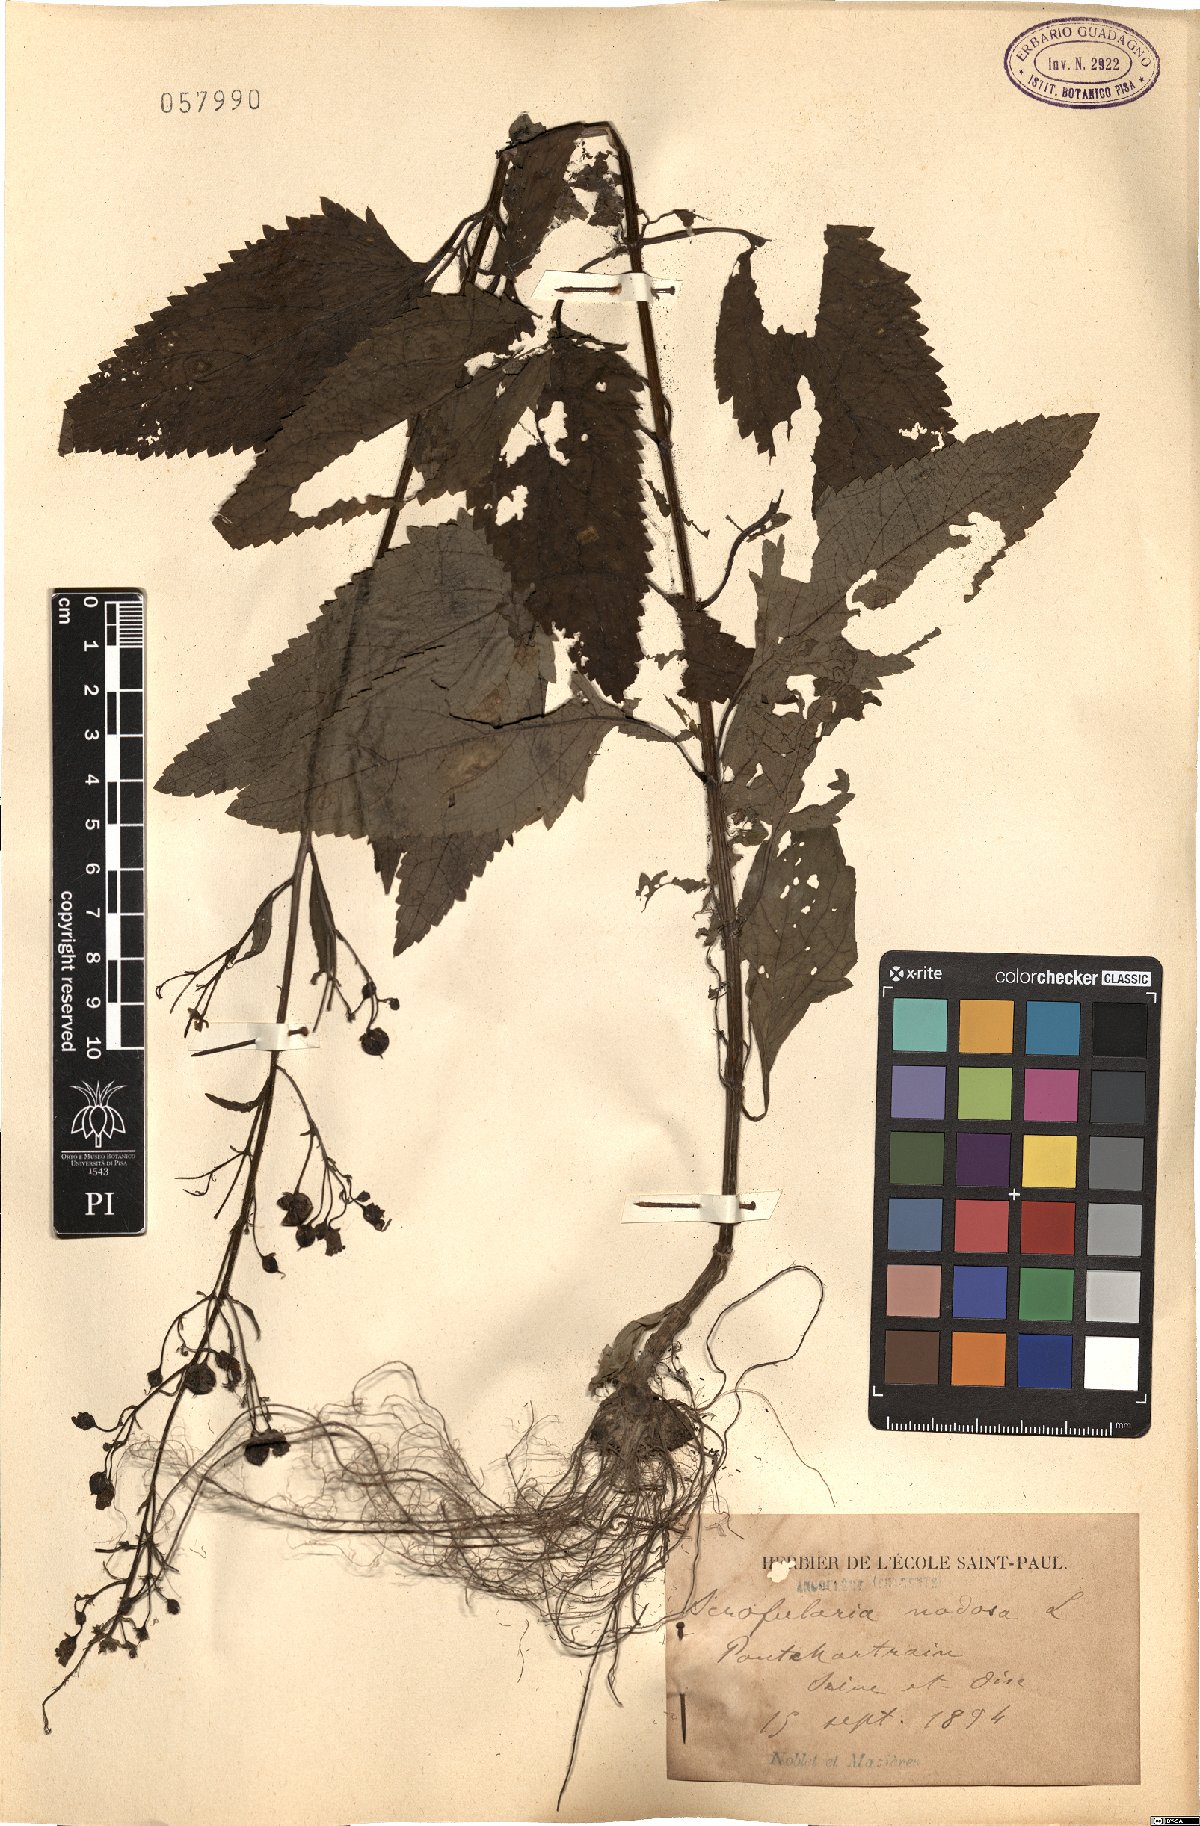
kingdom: Plantae
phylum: Tracheophyta
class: Magnoliopsida
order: Lamiales
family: Scrophulariaceae
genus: Scrophularia
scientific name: Scrophularia nodosa
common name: Common figwort
